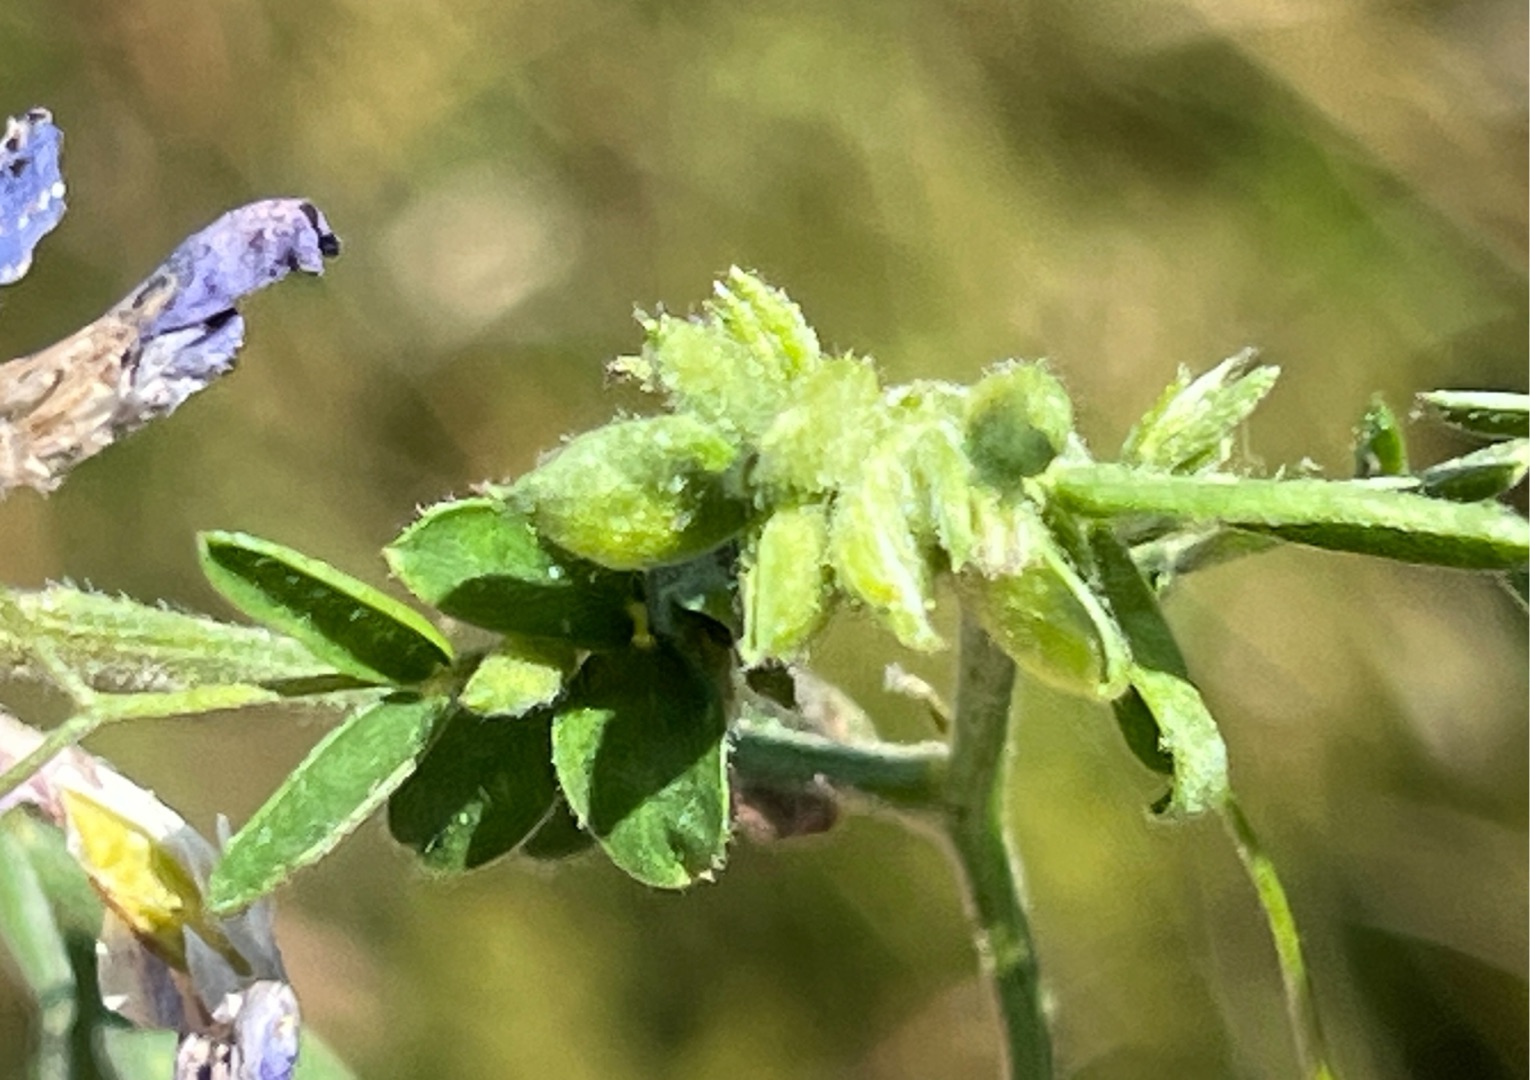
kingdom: Animalia
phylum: Arthropoda
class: Insecta
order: Diptera
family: Cecidomyiidae
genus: Dasineura
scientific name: Dasineura spadicea
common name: Musevikkegalmyg
